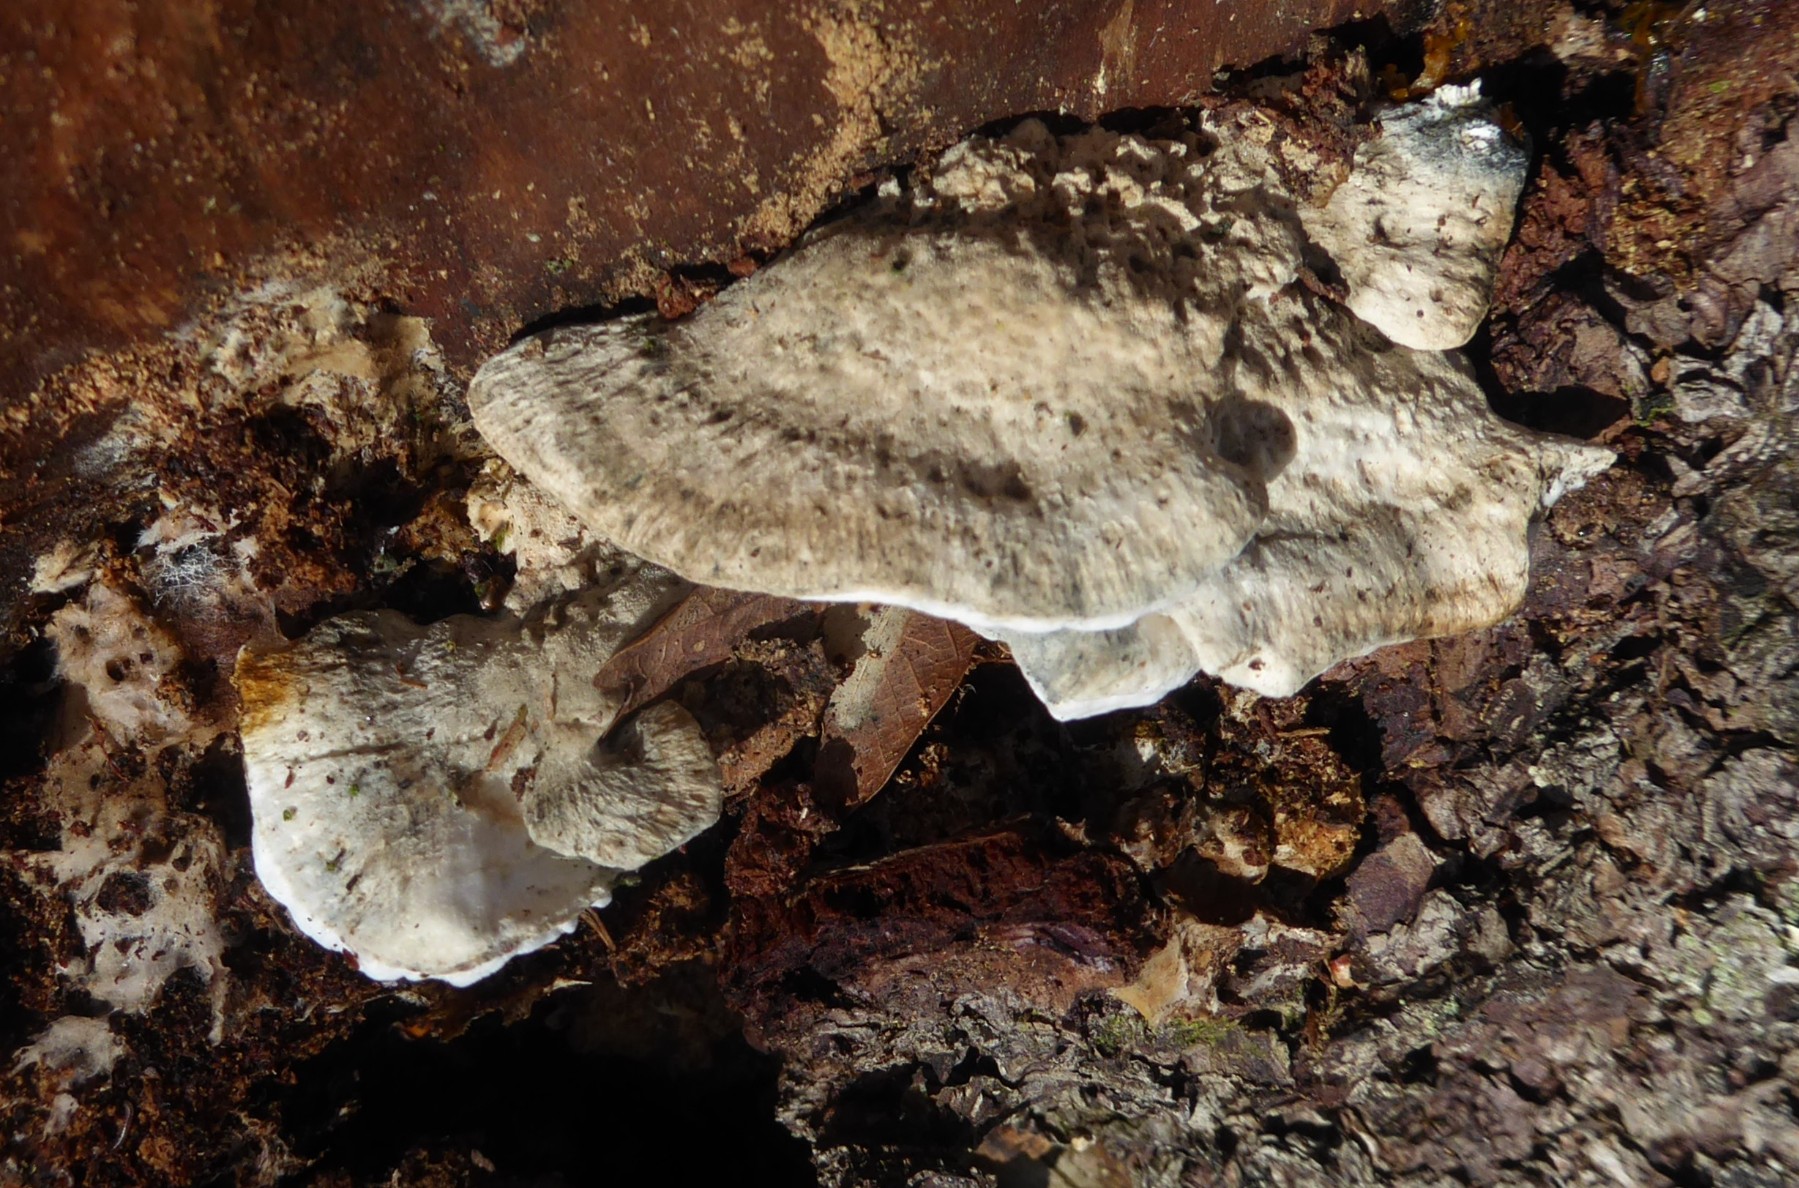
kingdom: Fungi
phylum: Basidiomycota
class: Agaricomycetes
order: Polyporales
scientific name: Polyporales
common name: poresvampordenen
